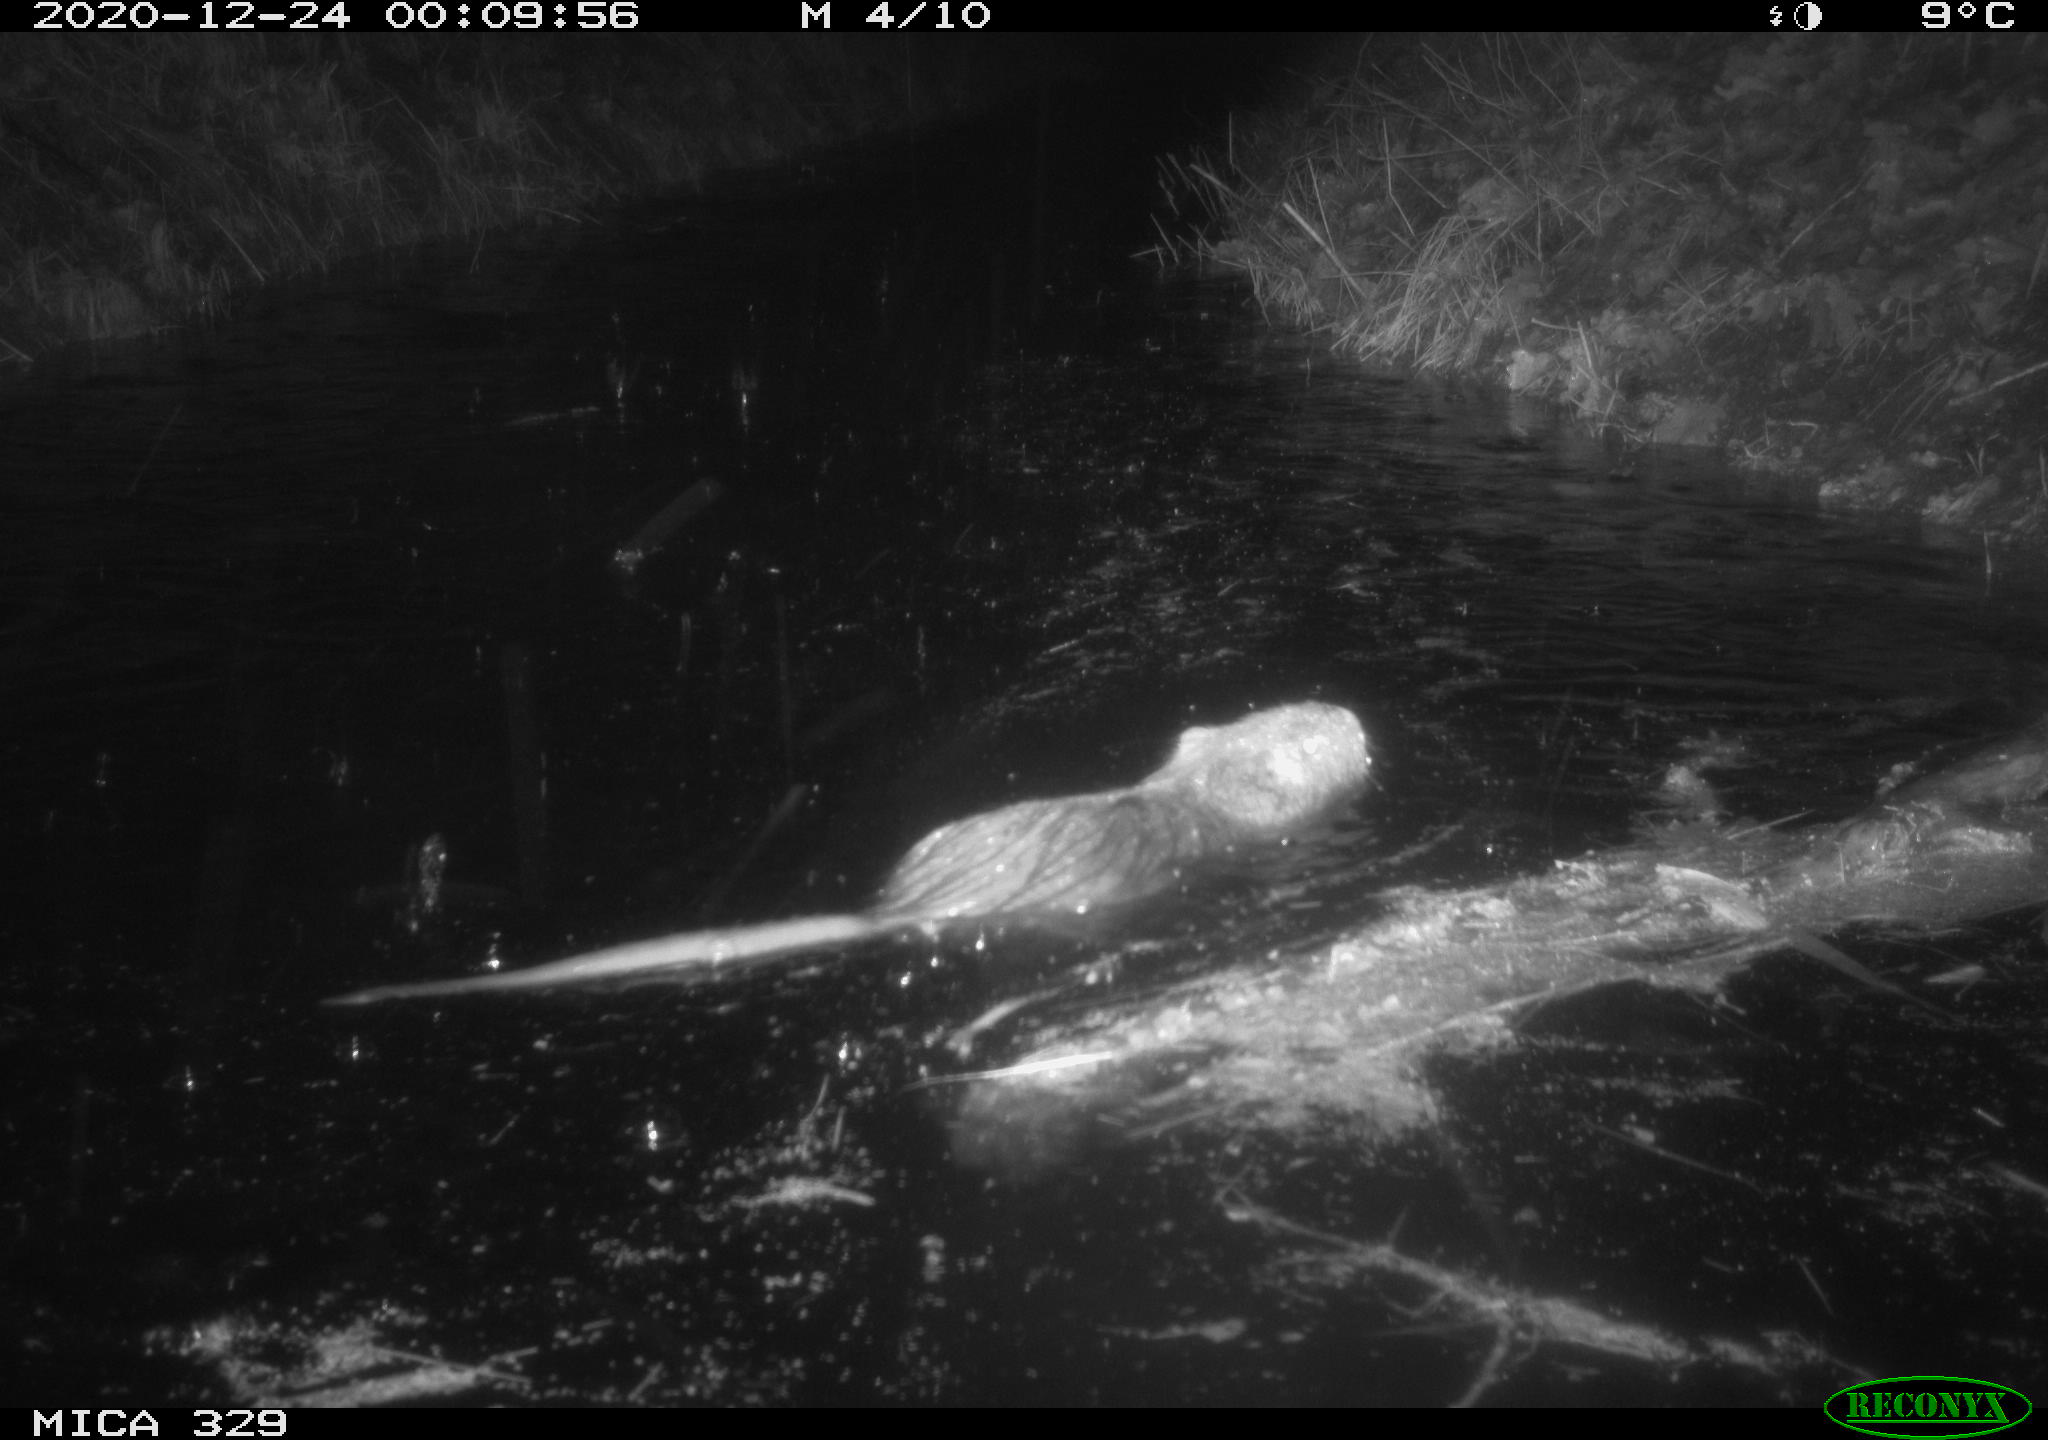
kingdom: Animalia
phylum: Chordata
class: Mammalia
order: Rodentia
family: Myocastoridae
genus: Myocastor
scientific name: Myocastor coypus
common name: Coypu
